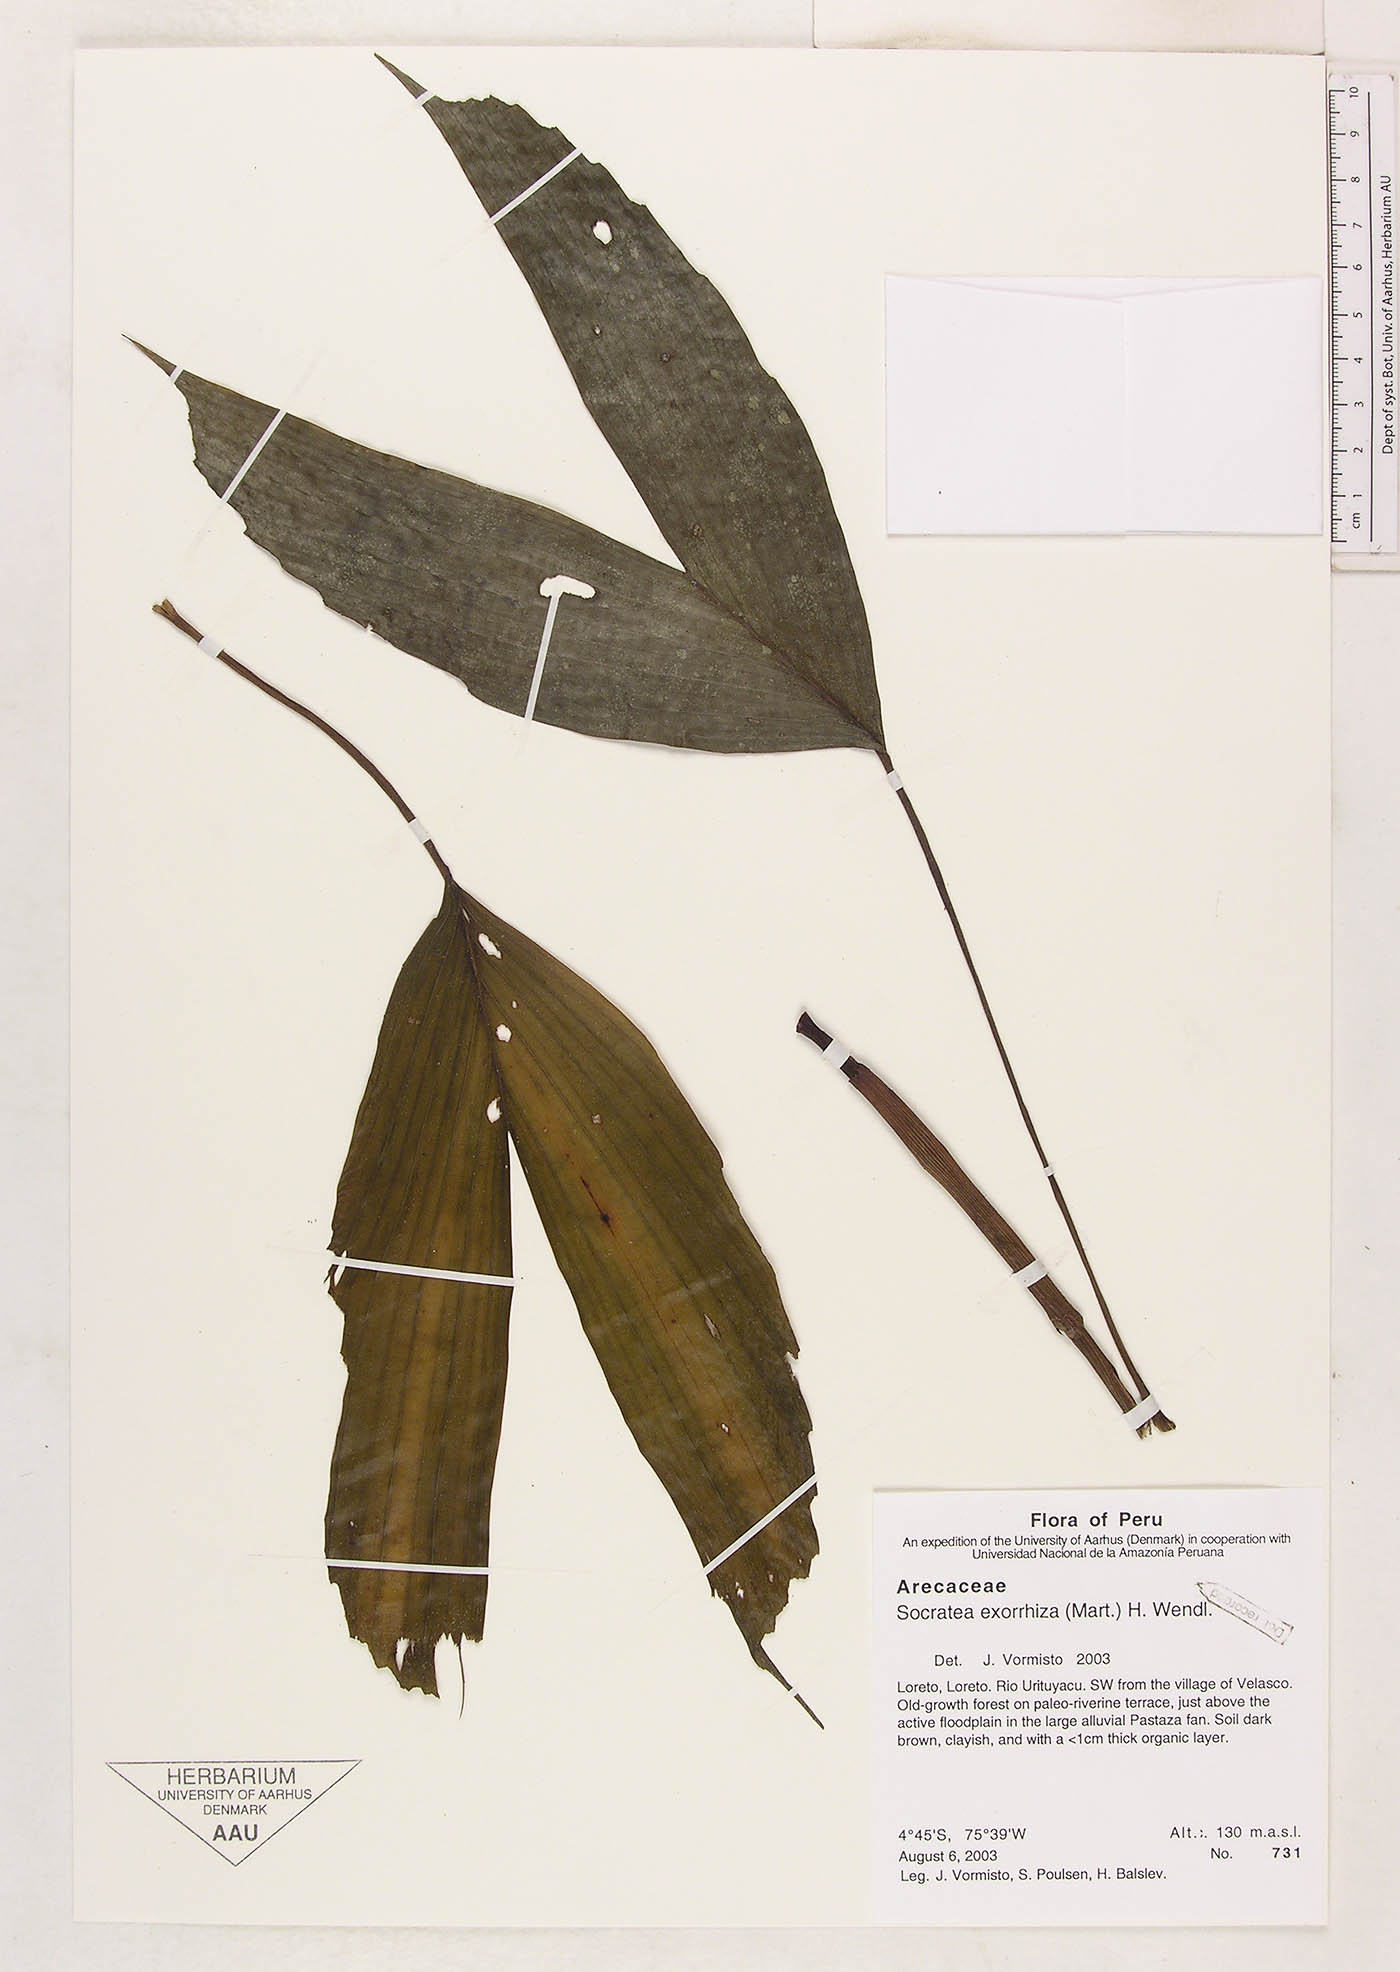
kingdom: Plantae
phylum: Tracheophyta
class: Liliopsida
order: Arecales
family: Arecaceae
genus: Socratea
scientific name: Socratea exorrhiza
